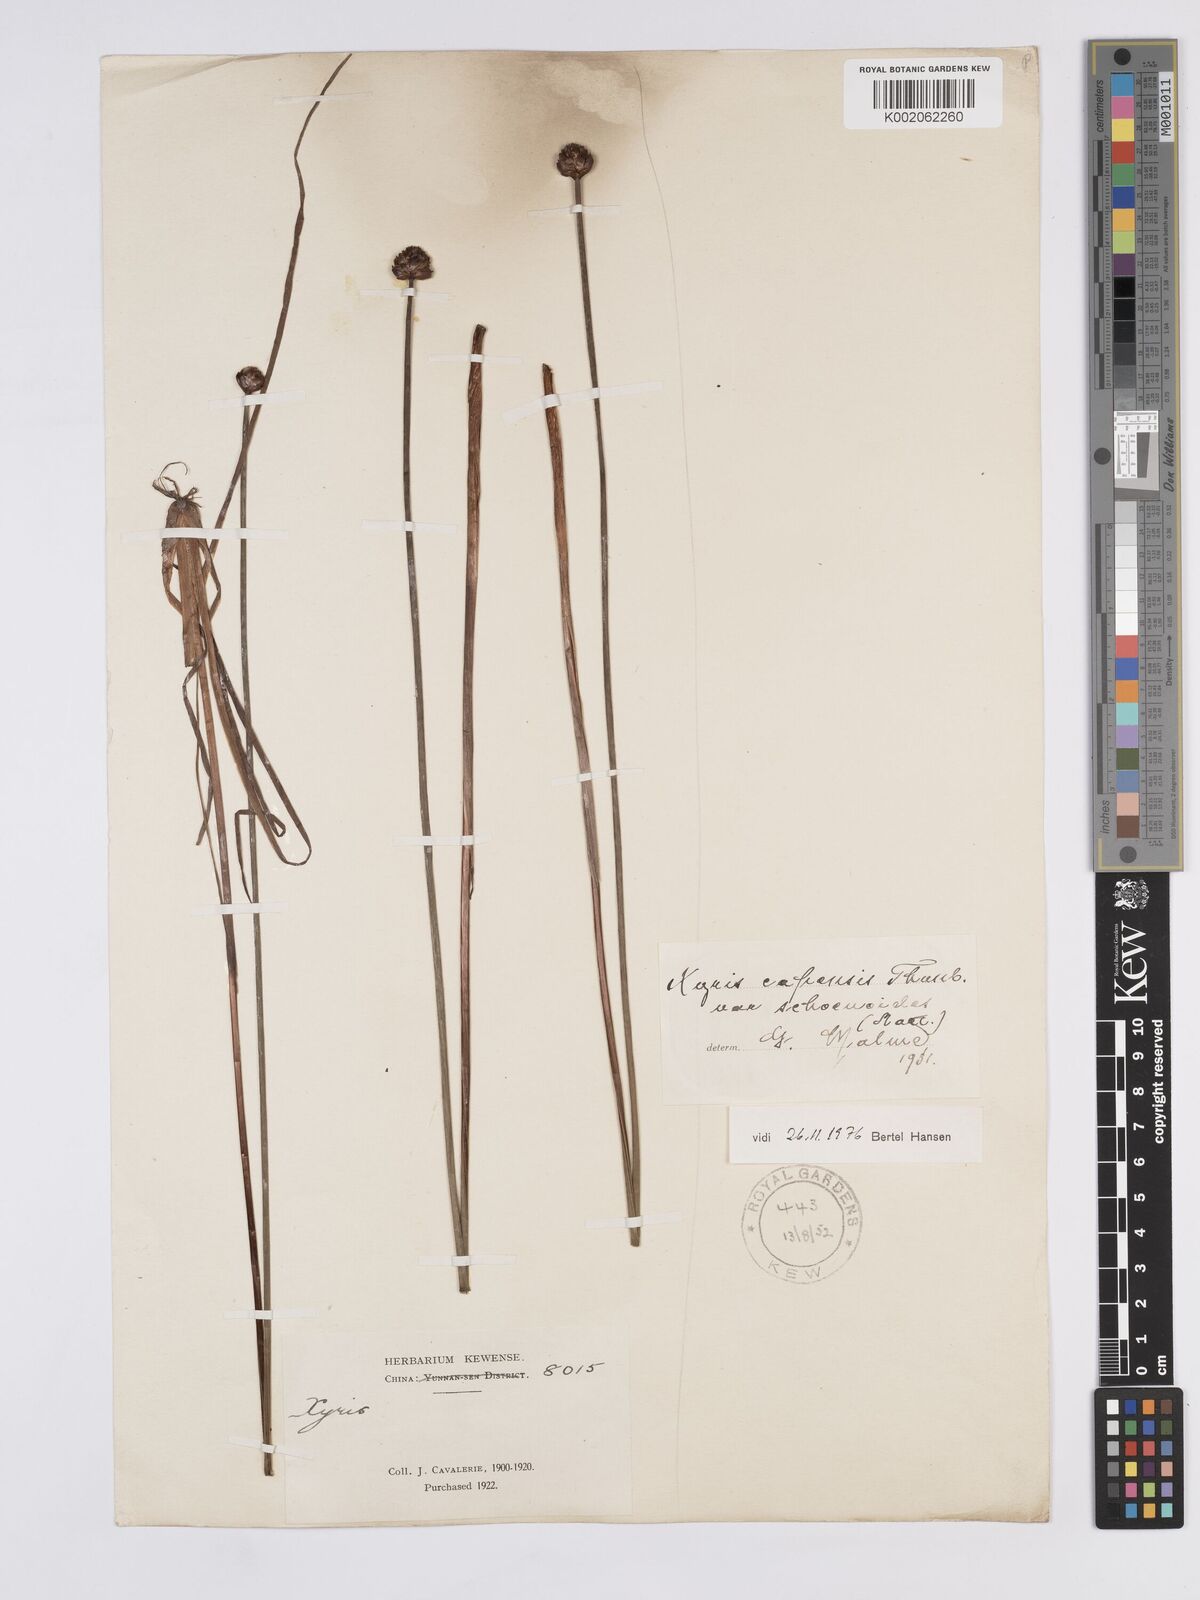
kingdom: Plantae
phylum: Tracheophyta
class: Liliopsida
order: Poales
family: Xyridaceae
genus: Xyris
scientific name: Xyris capensis
